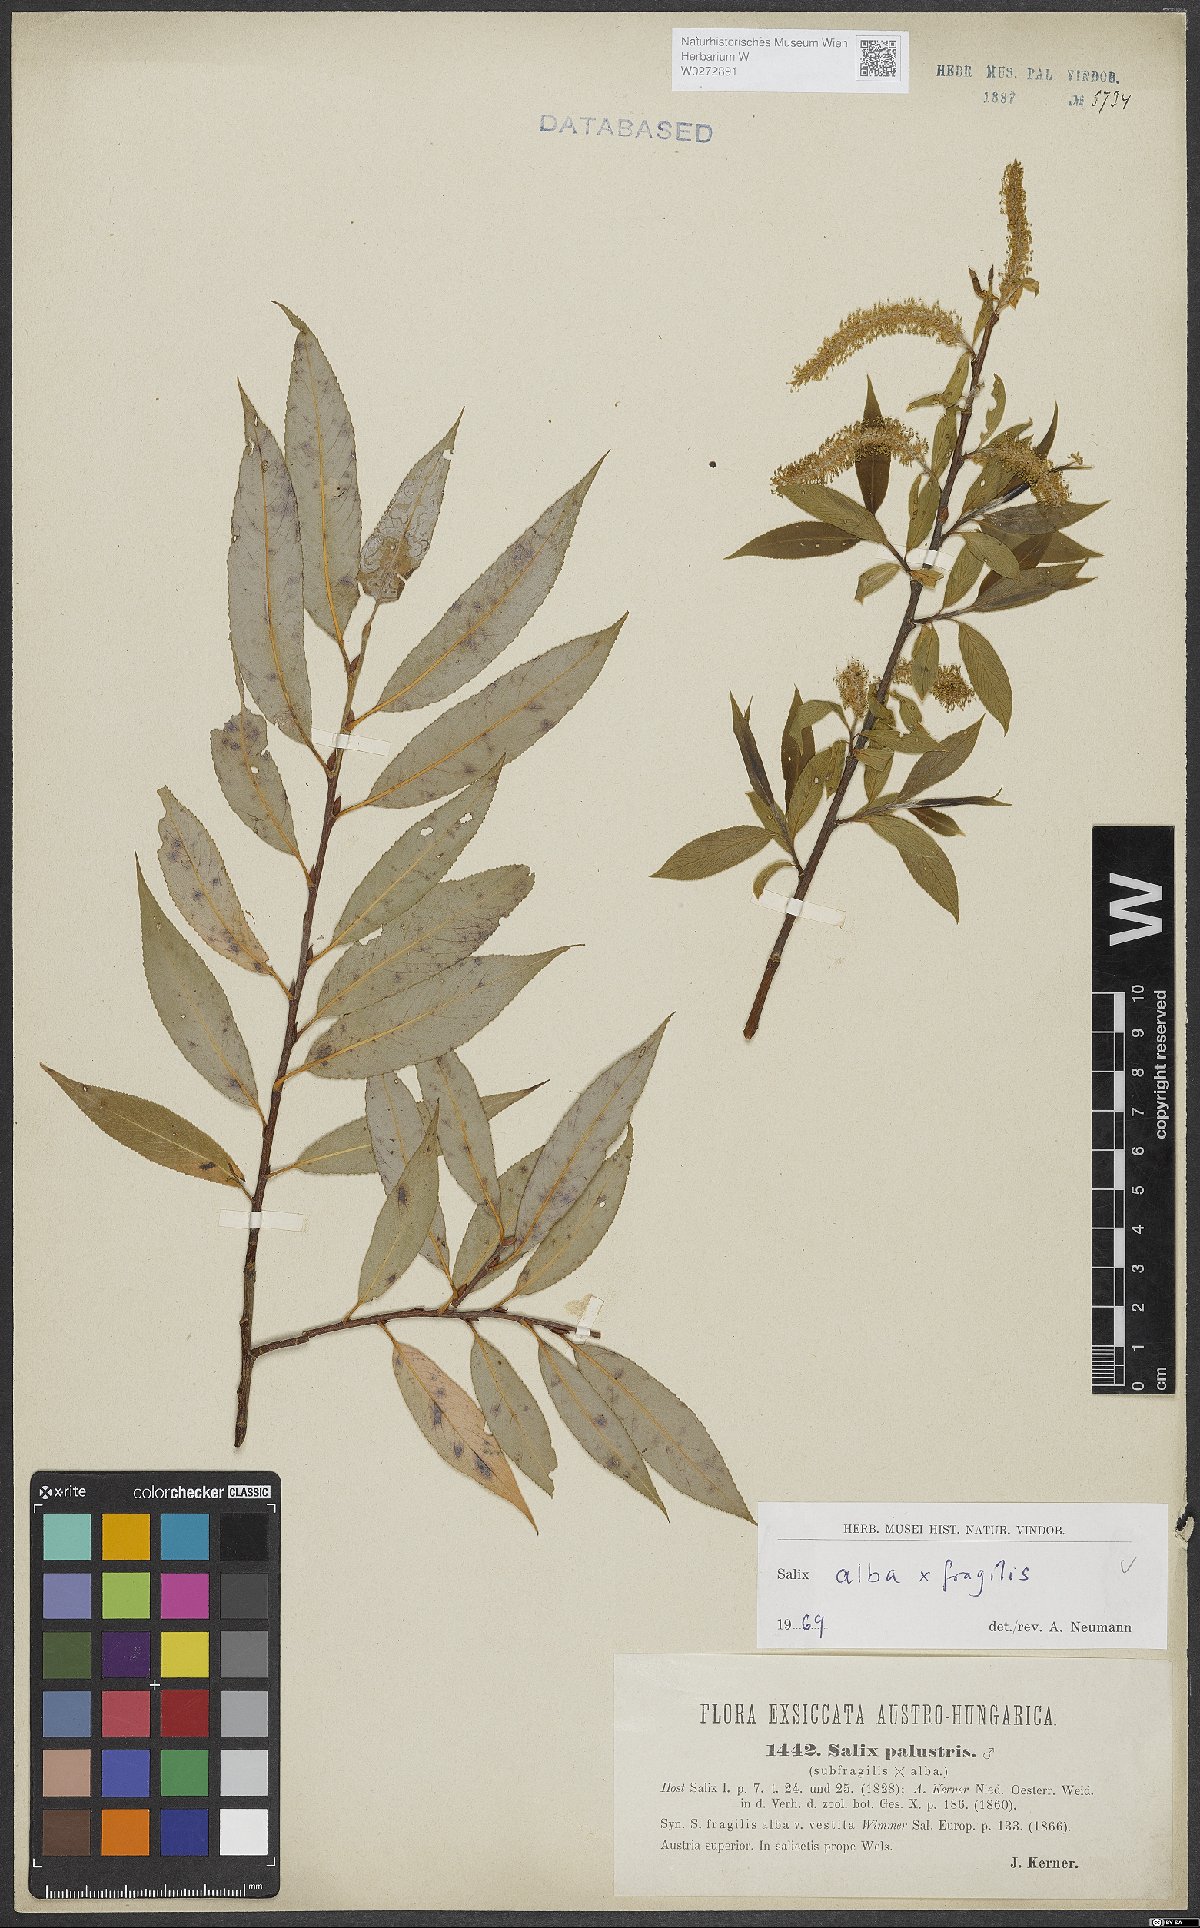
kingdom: Plantae
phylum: Tracheophyta
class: Magnoliopsida
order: Malpighiales
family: Salicaceae
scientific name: Salicaceae
